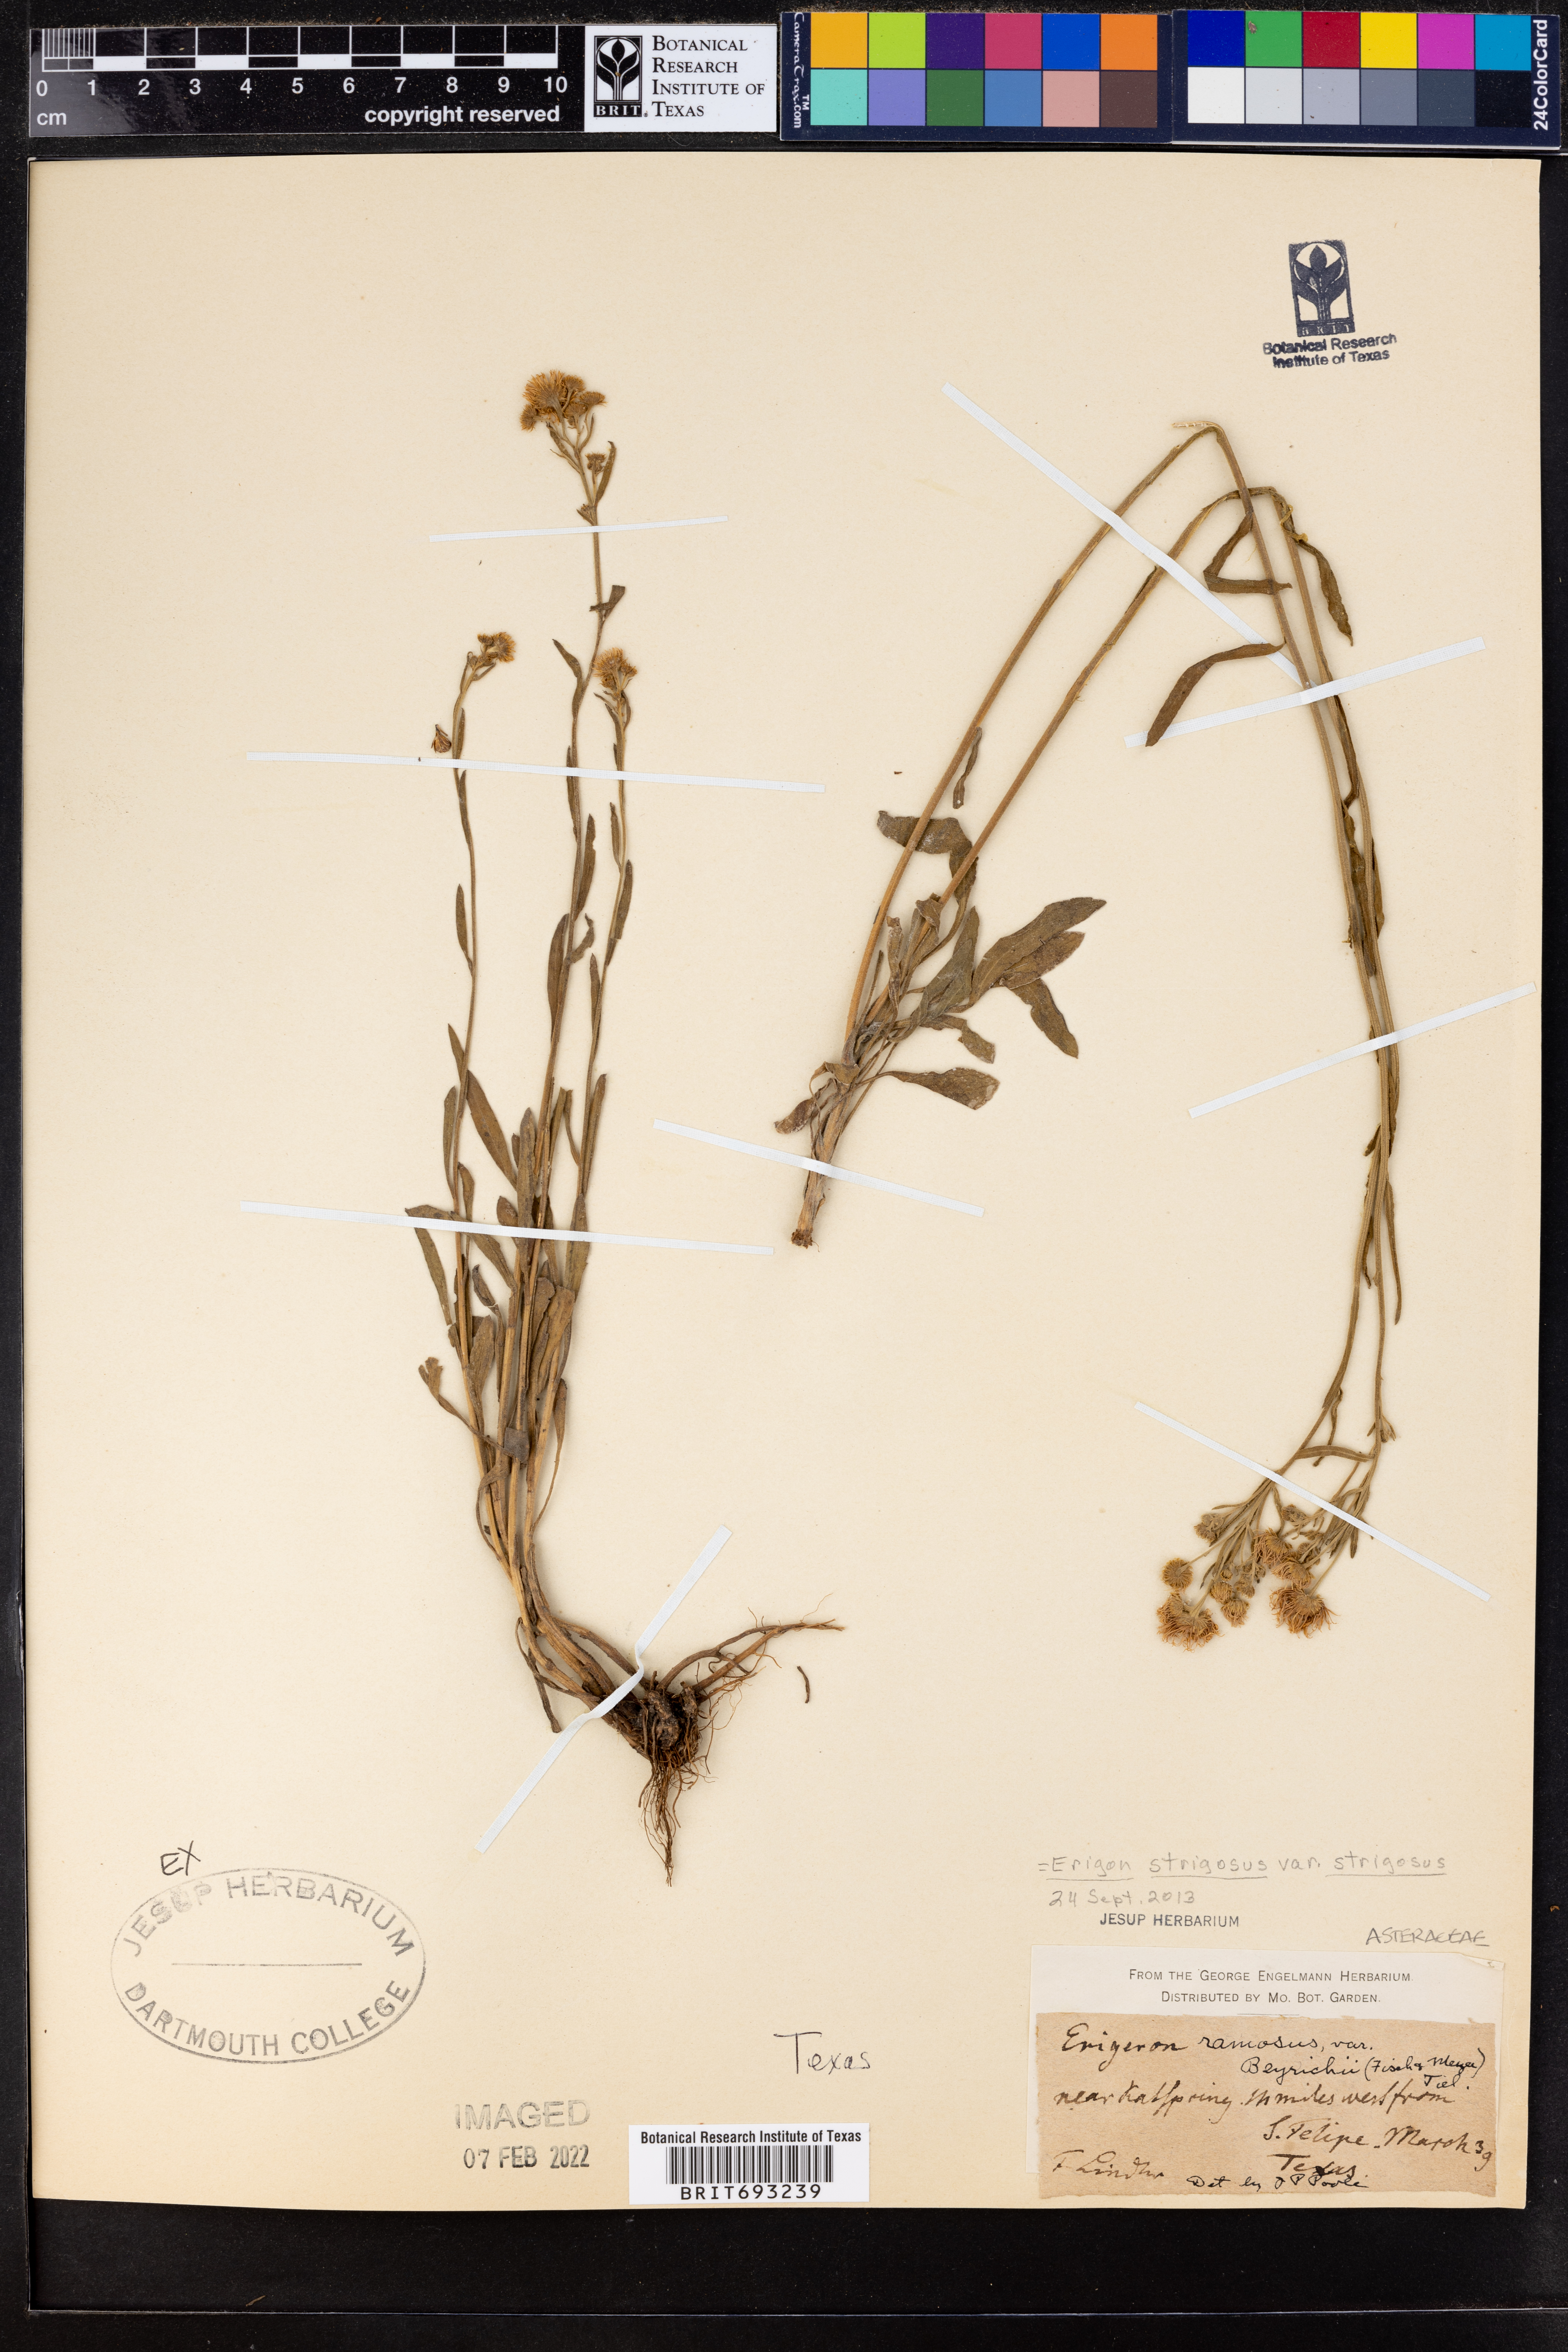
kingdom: Plantae
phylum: Tracheophyta
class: Magnoliopsida
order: Asterales
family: Asteraceae
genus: Erigeron
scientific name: Erigeron strigosus
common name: Common eastern fleabane
